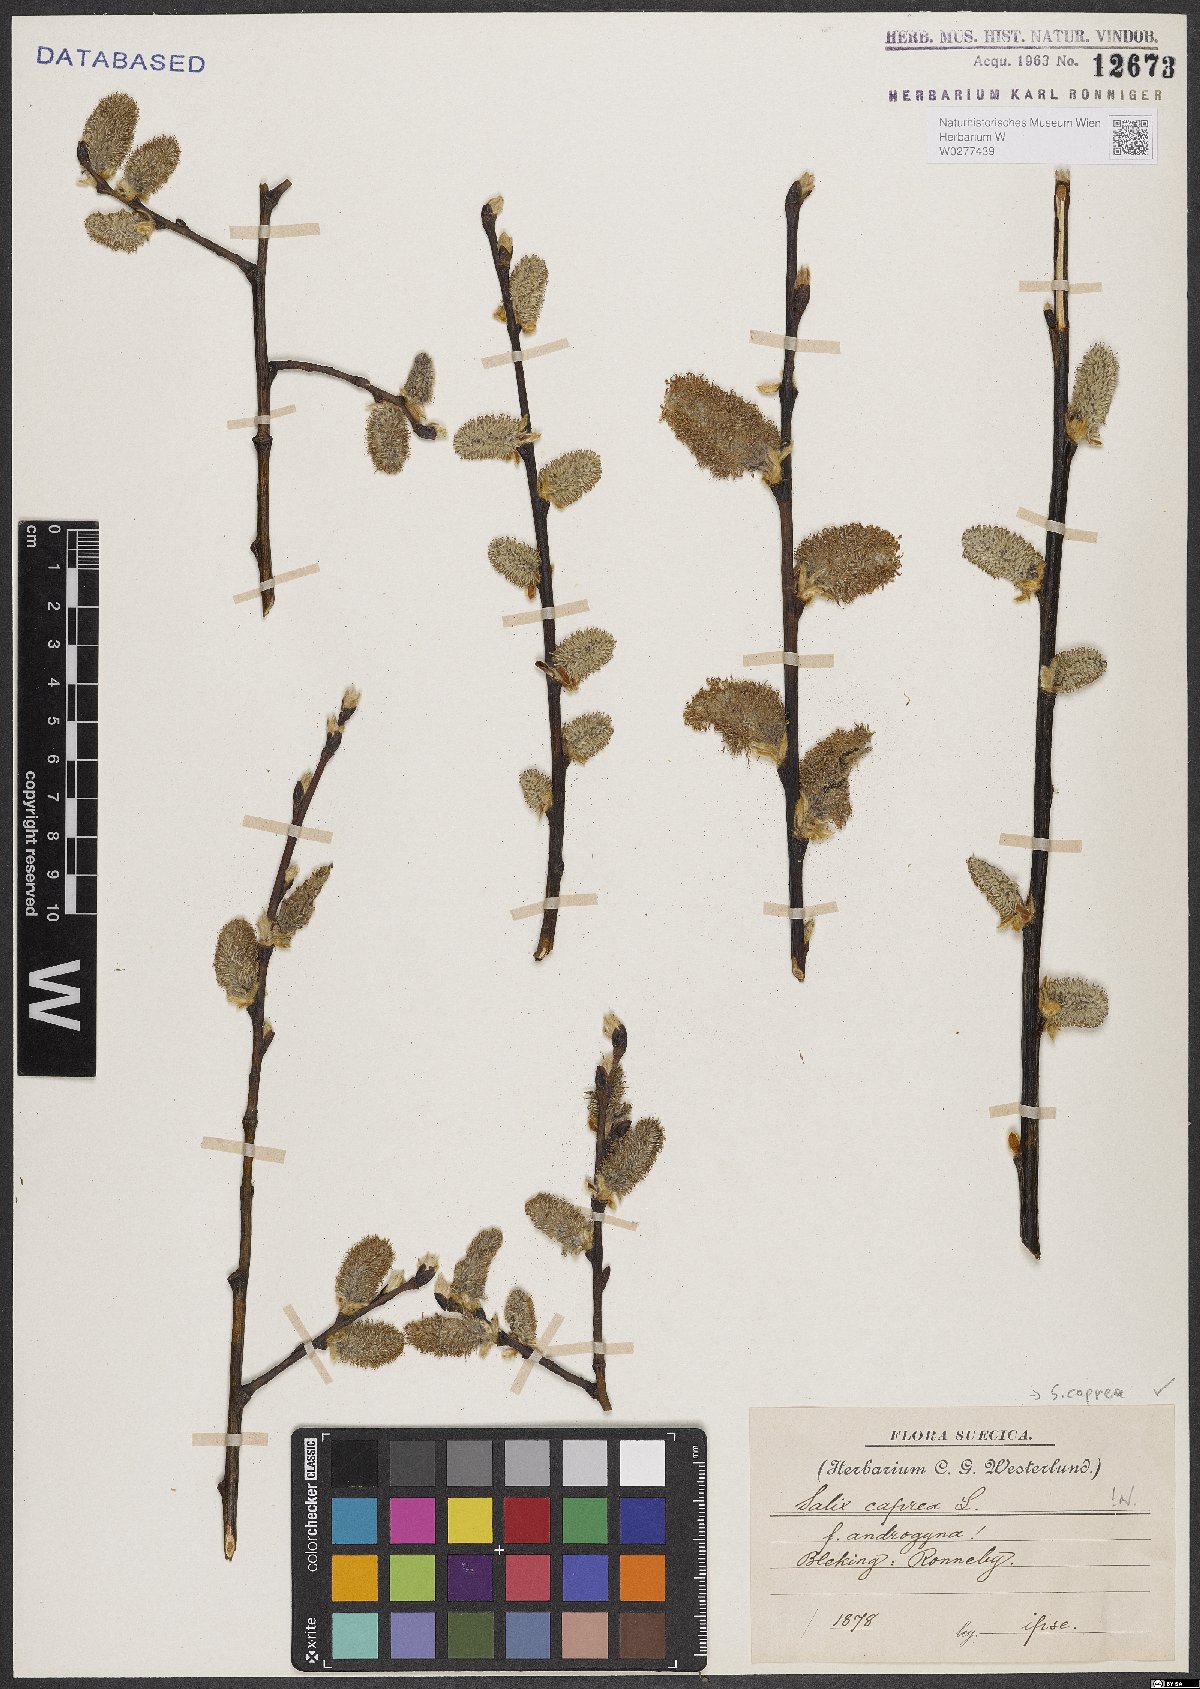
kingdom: Plantae
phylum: Tracheophyta
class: Magnoliopsida
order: Malpighiales
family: Salicaceae
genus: Salix
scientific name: Salix caprea
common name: Goat willow
